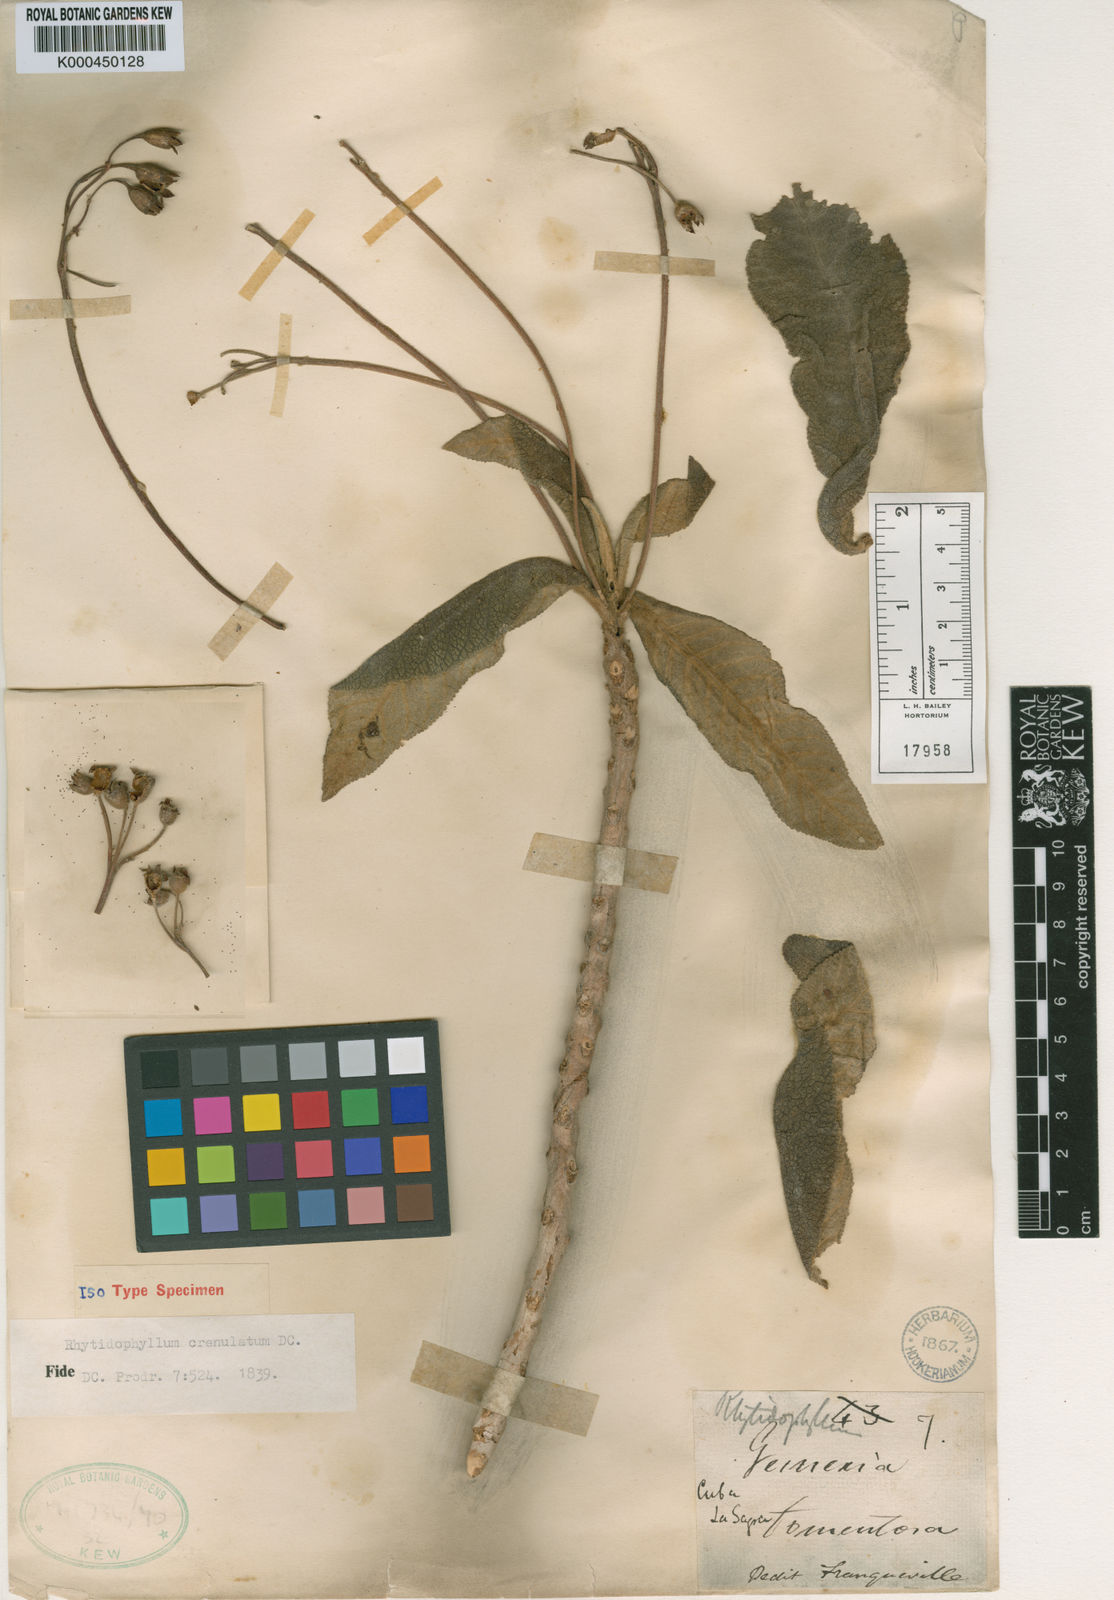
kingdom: Plantae
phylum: Tracheophyta
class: Magnoliopsida
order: Lamiales
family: Gesneriaceae
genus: Rhytidophyllum
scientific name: Rhytidophyllum crenulatum
